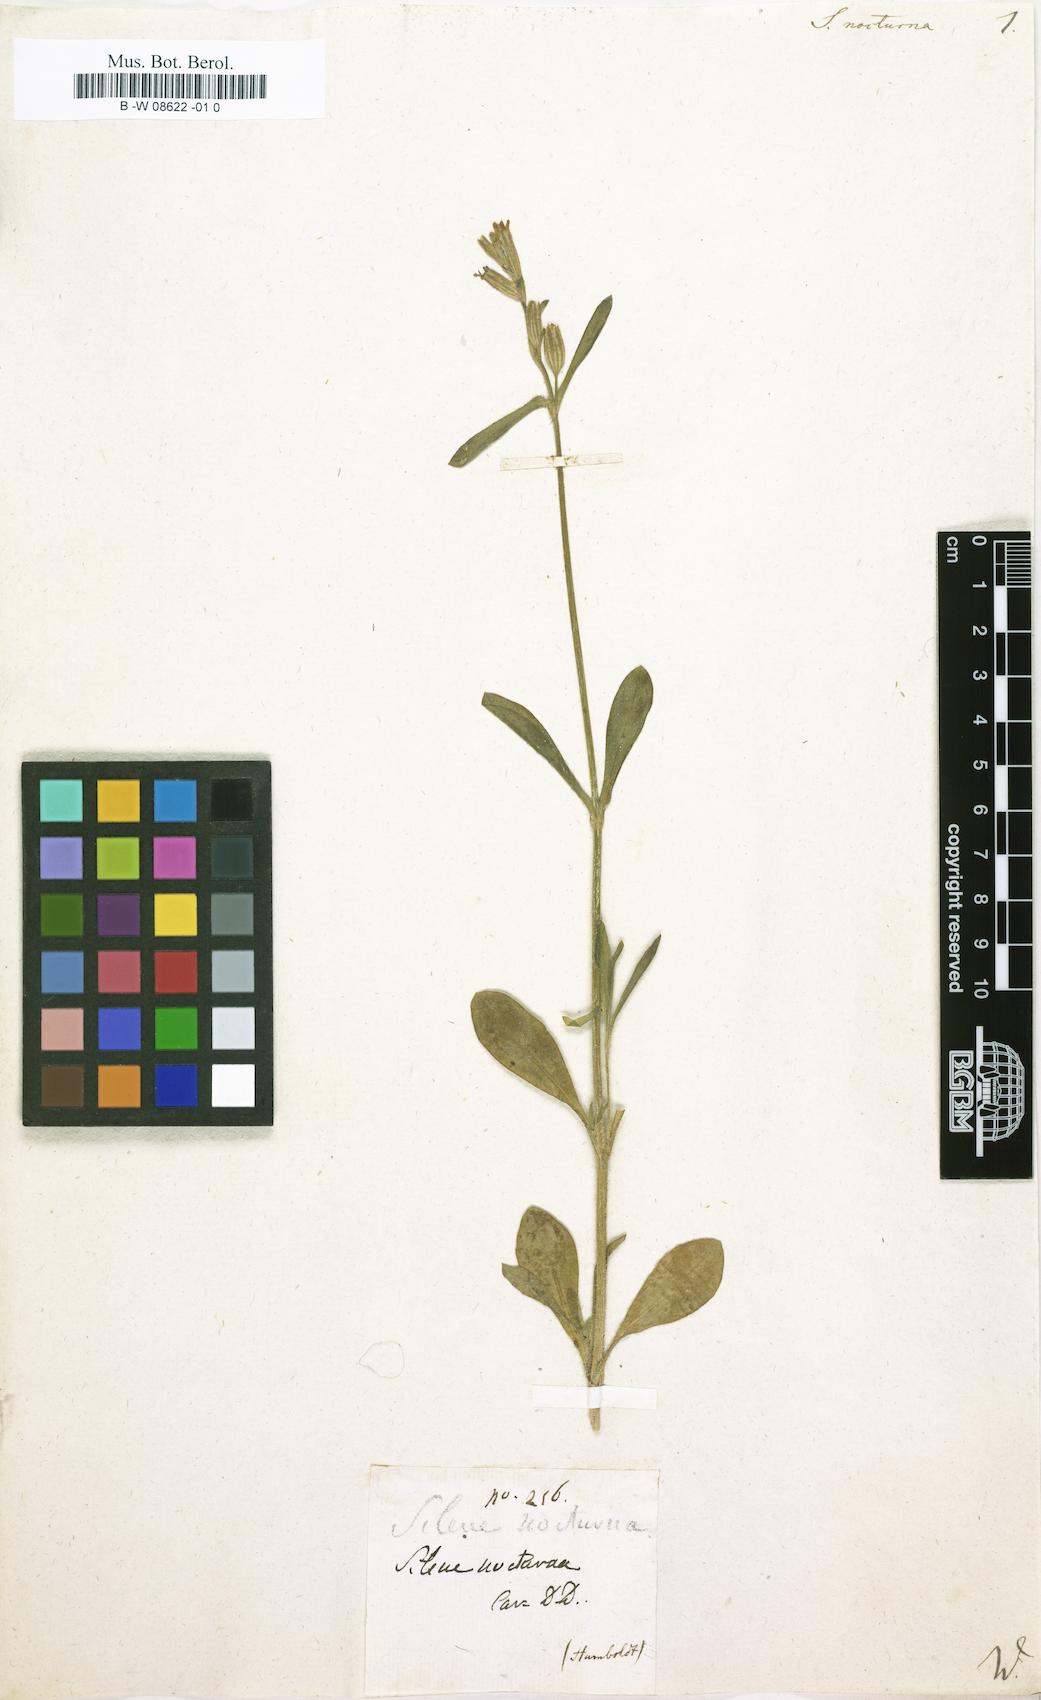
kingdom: Plantae
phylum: Tracheophyta
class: Magnoliopsida
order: Caryophyllales
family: Caryophyllaceae
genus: Silene
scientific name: Silene nocturna
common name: Mediterranean catchfly
